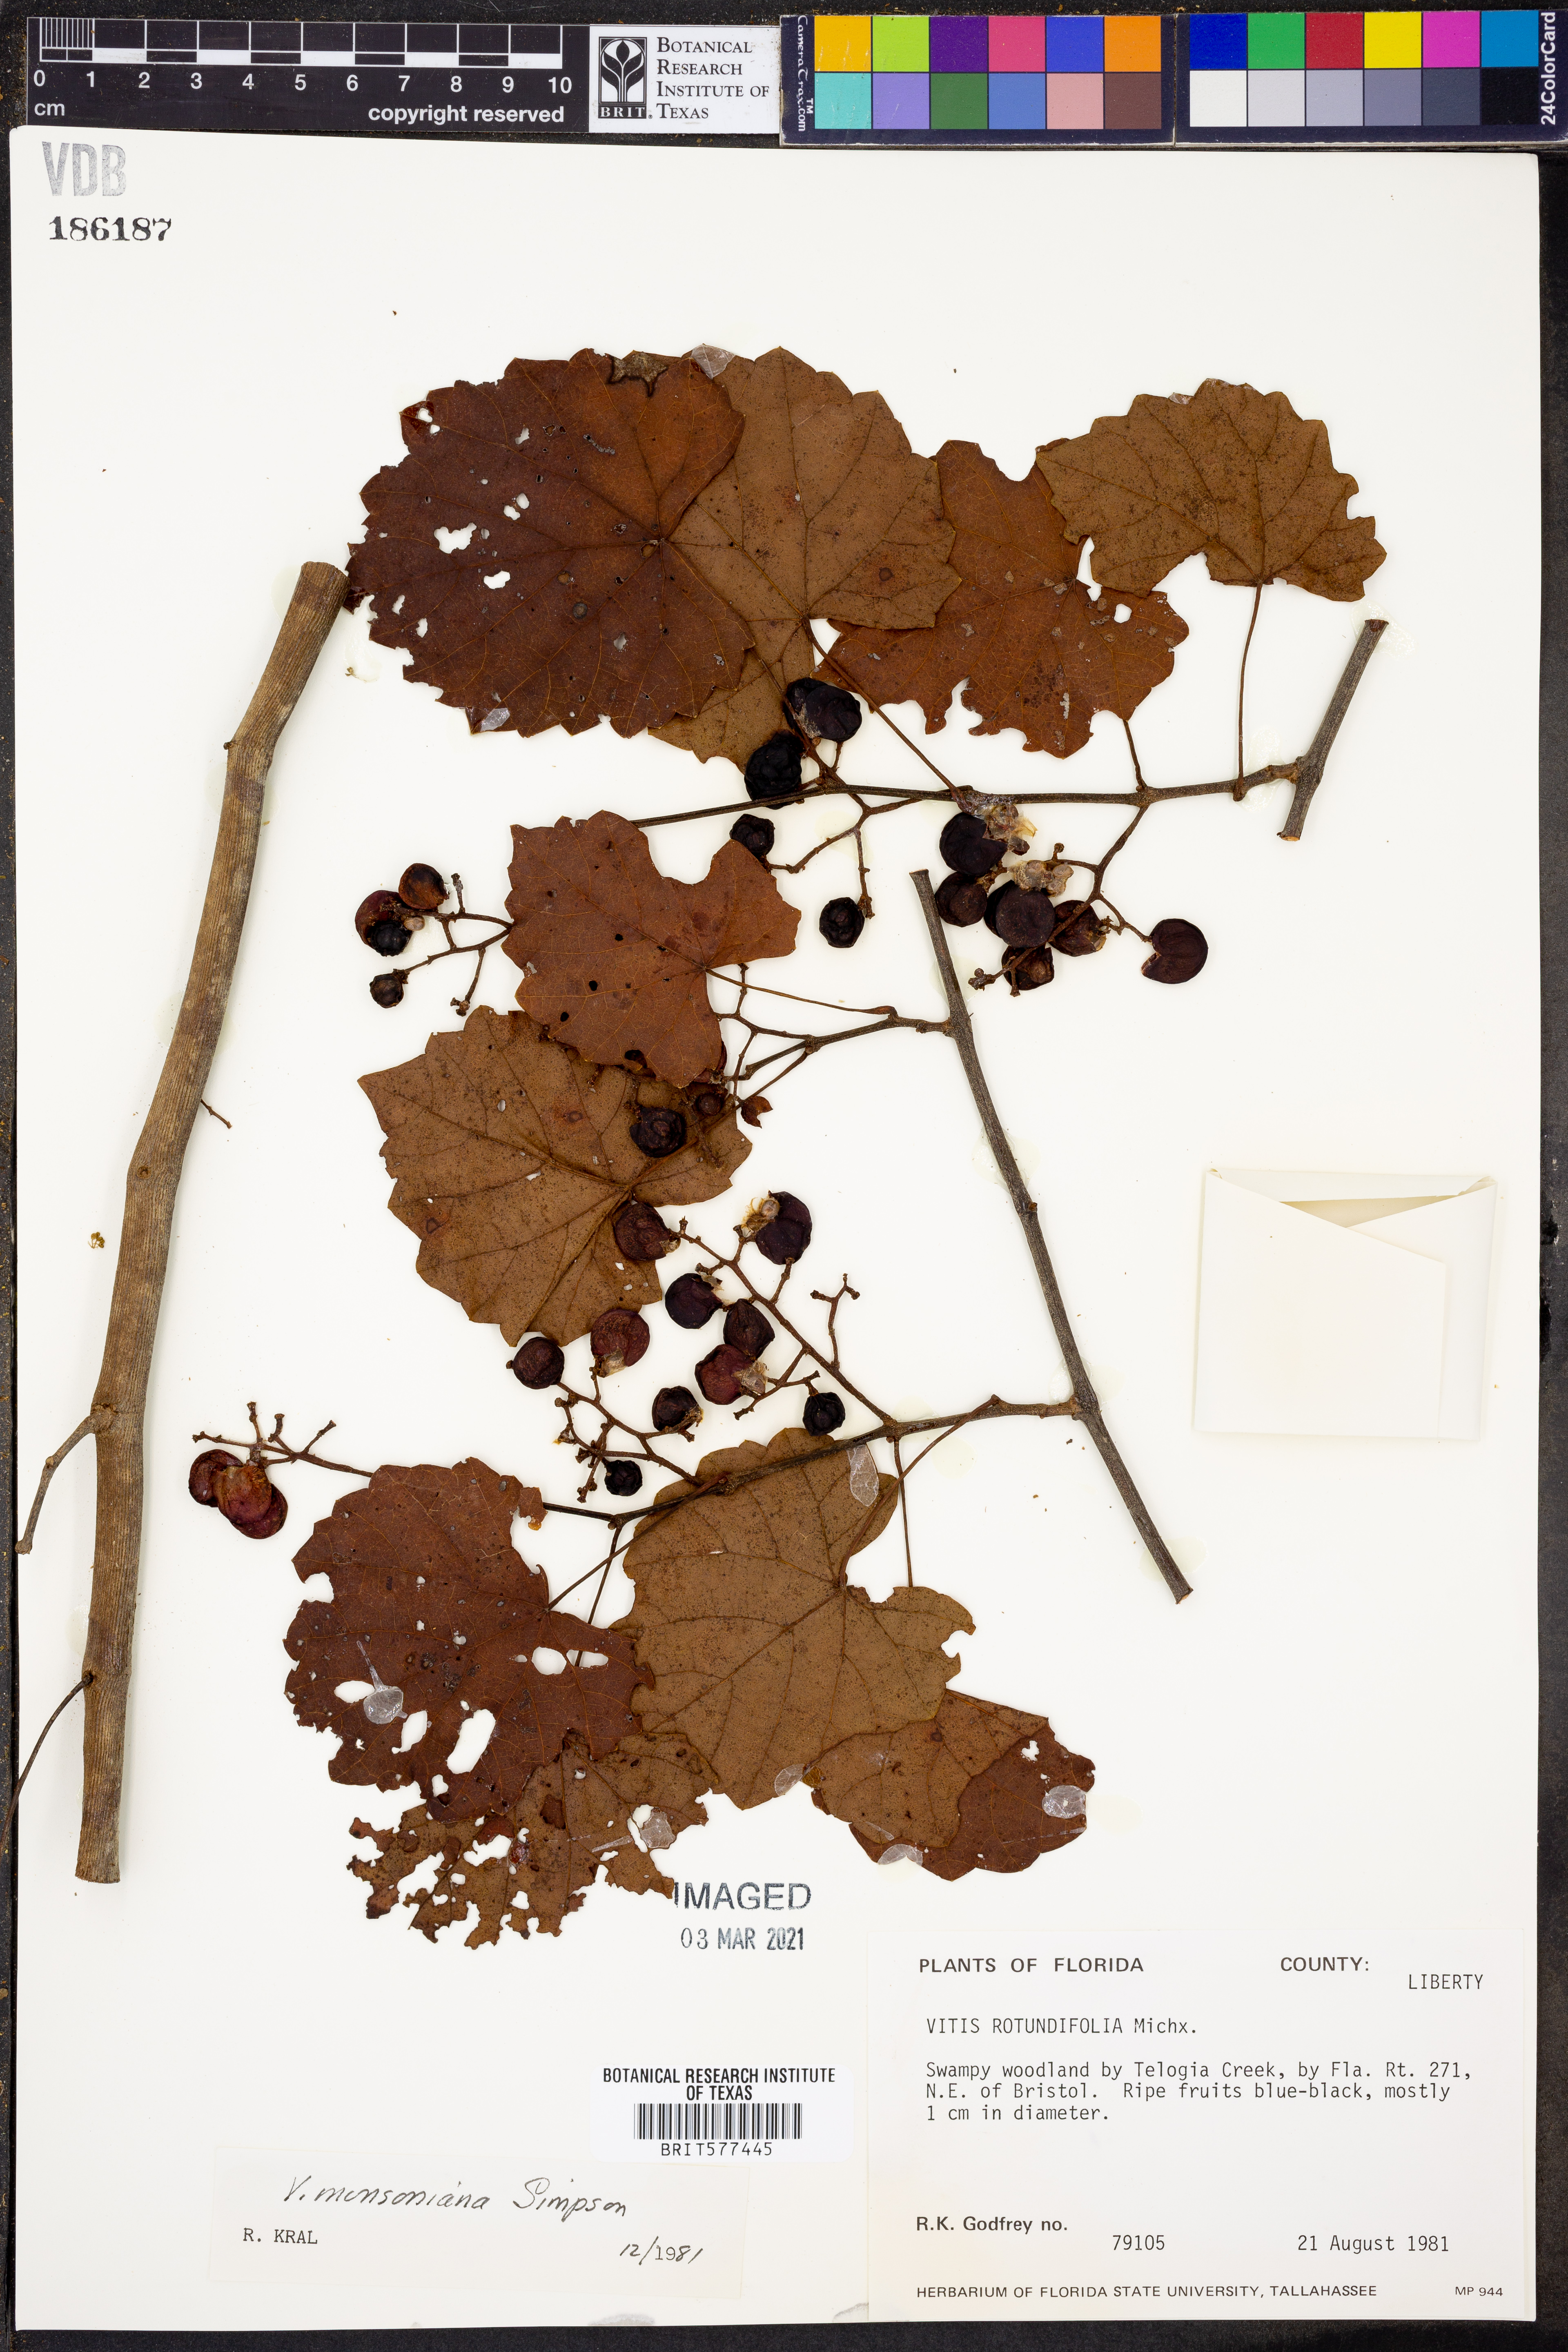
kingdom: Plantae
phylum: Tracheophyta
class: Magnoliopsida
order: Vitales
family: Vitaceae
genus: Vitis
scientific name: Vitis rotundifolia
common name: Muscadine grape
